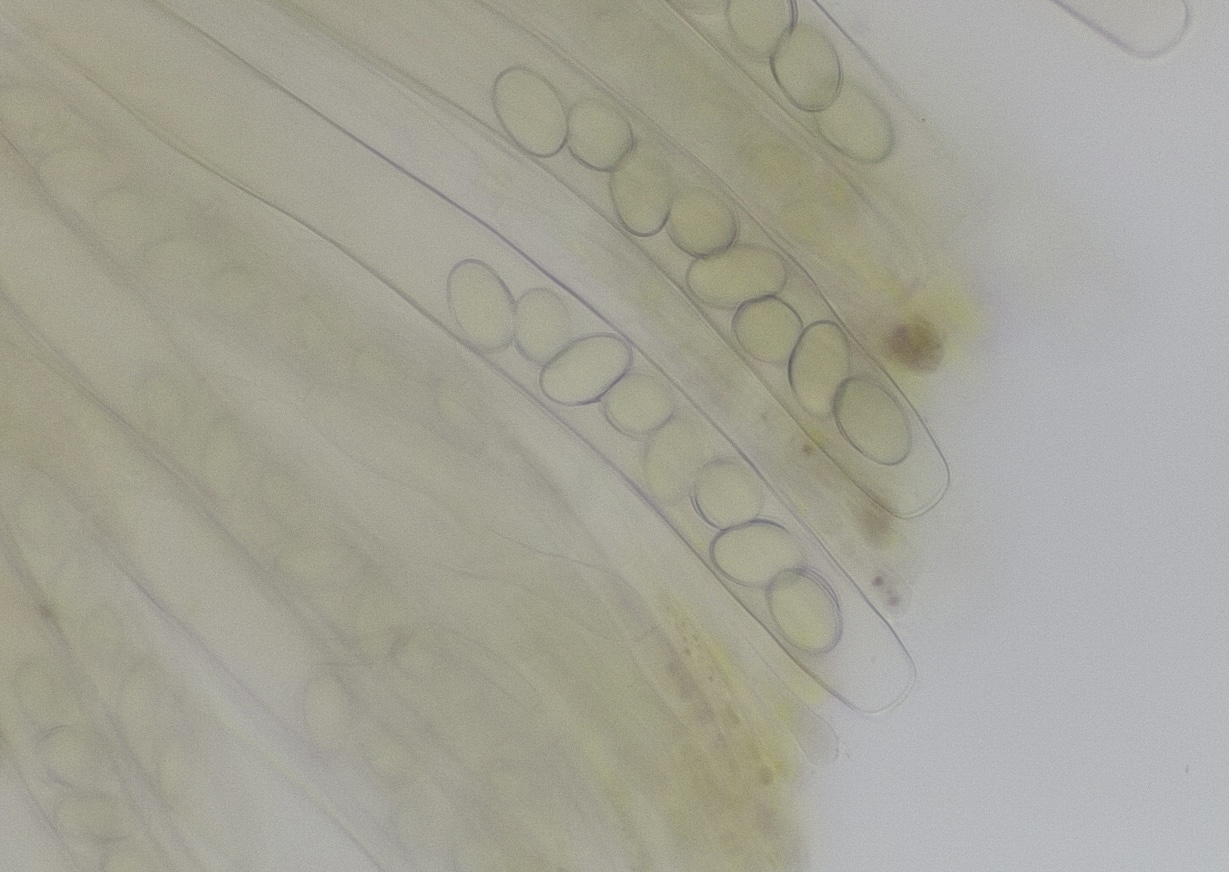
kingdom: Fungi
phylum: Ascomycota
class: Pezizomycetes
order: Pezizales
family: Pezizaceae
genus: Peziza
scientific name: Peziza fimeti
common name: møg-bægersvamp
